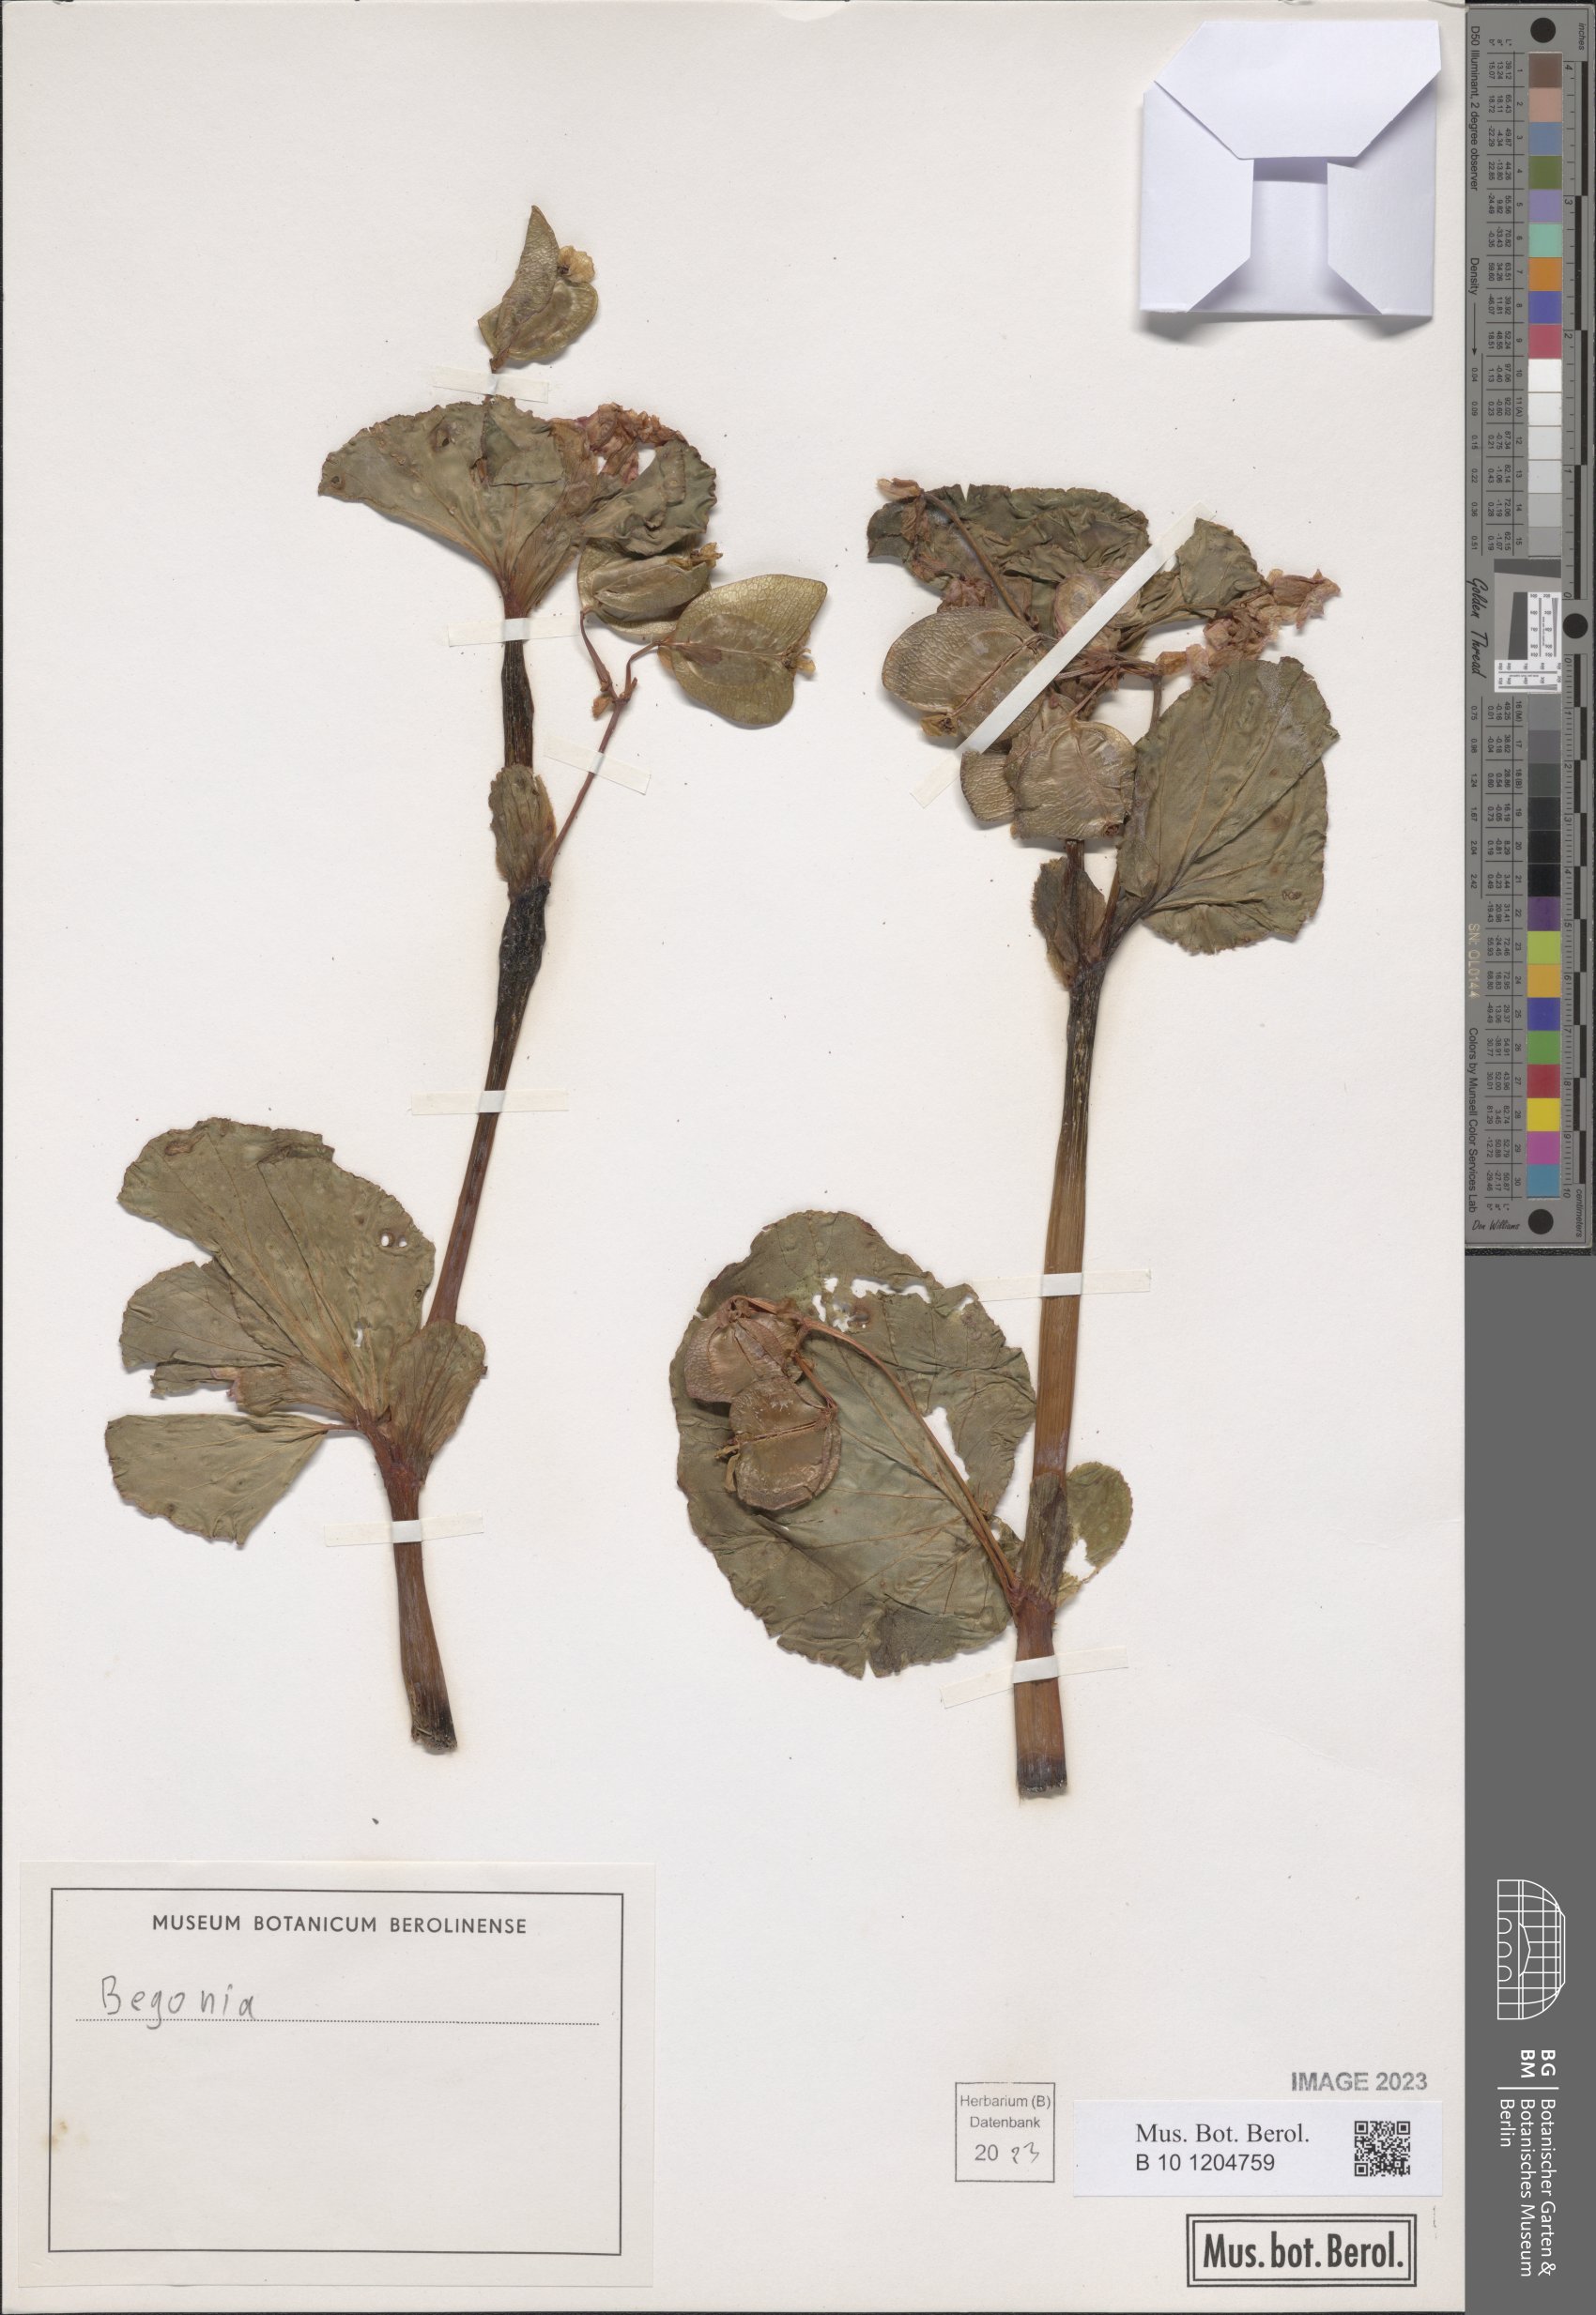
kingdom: Plantae
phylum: Tracheophyta
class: Magnoliopsida
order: Cucurbitales
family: Begoniaceae
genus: Begonia
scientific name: Begonia
